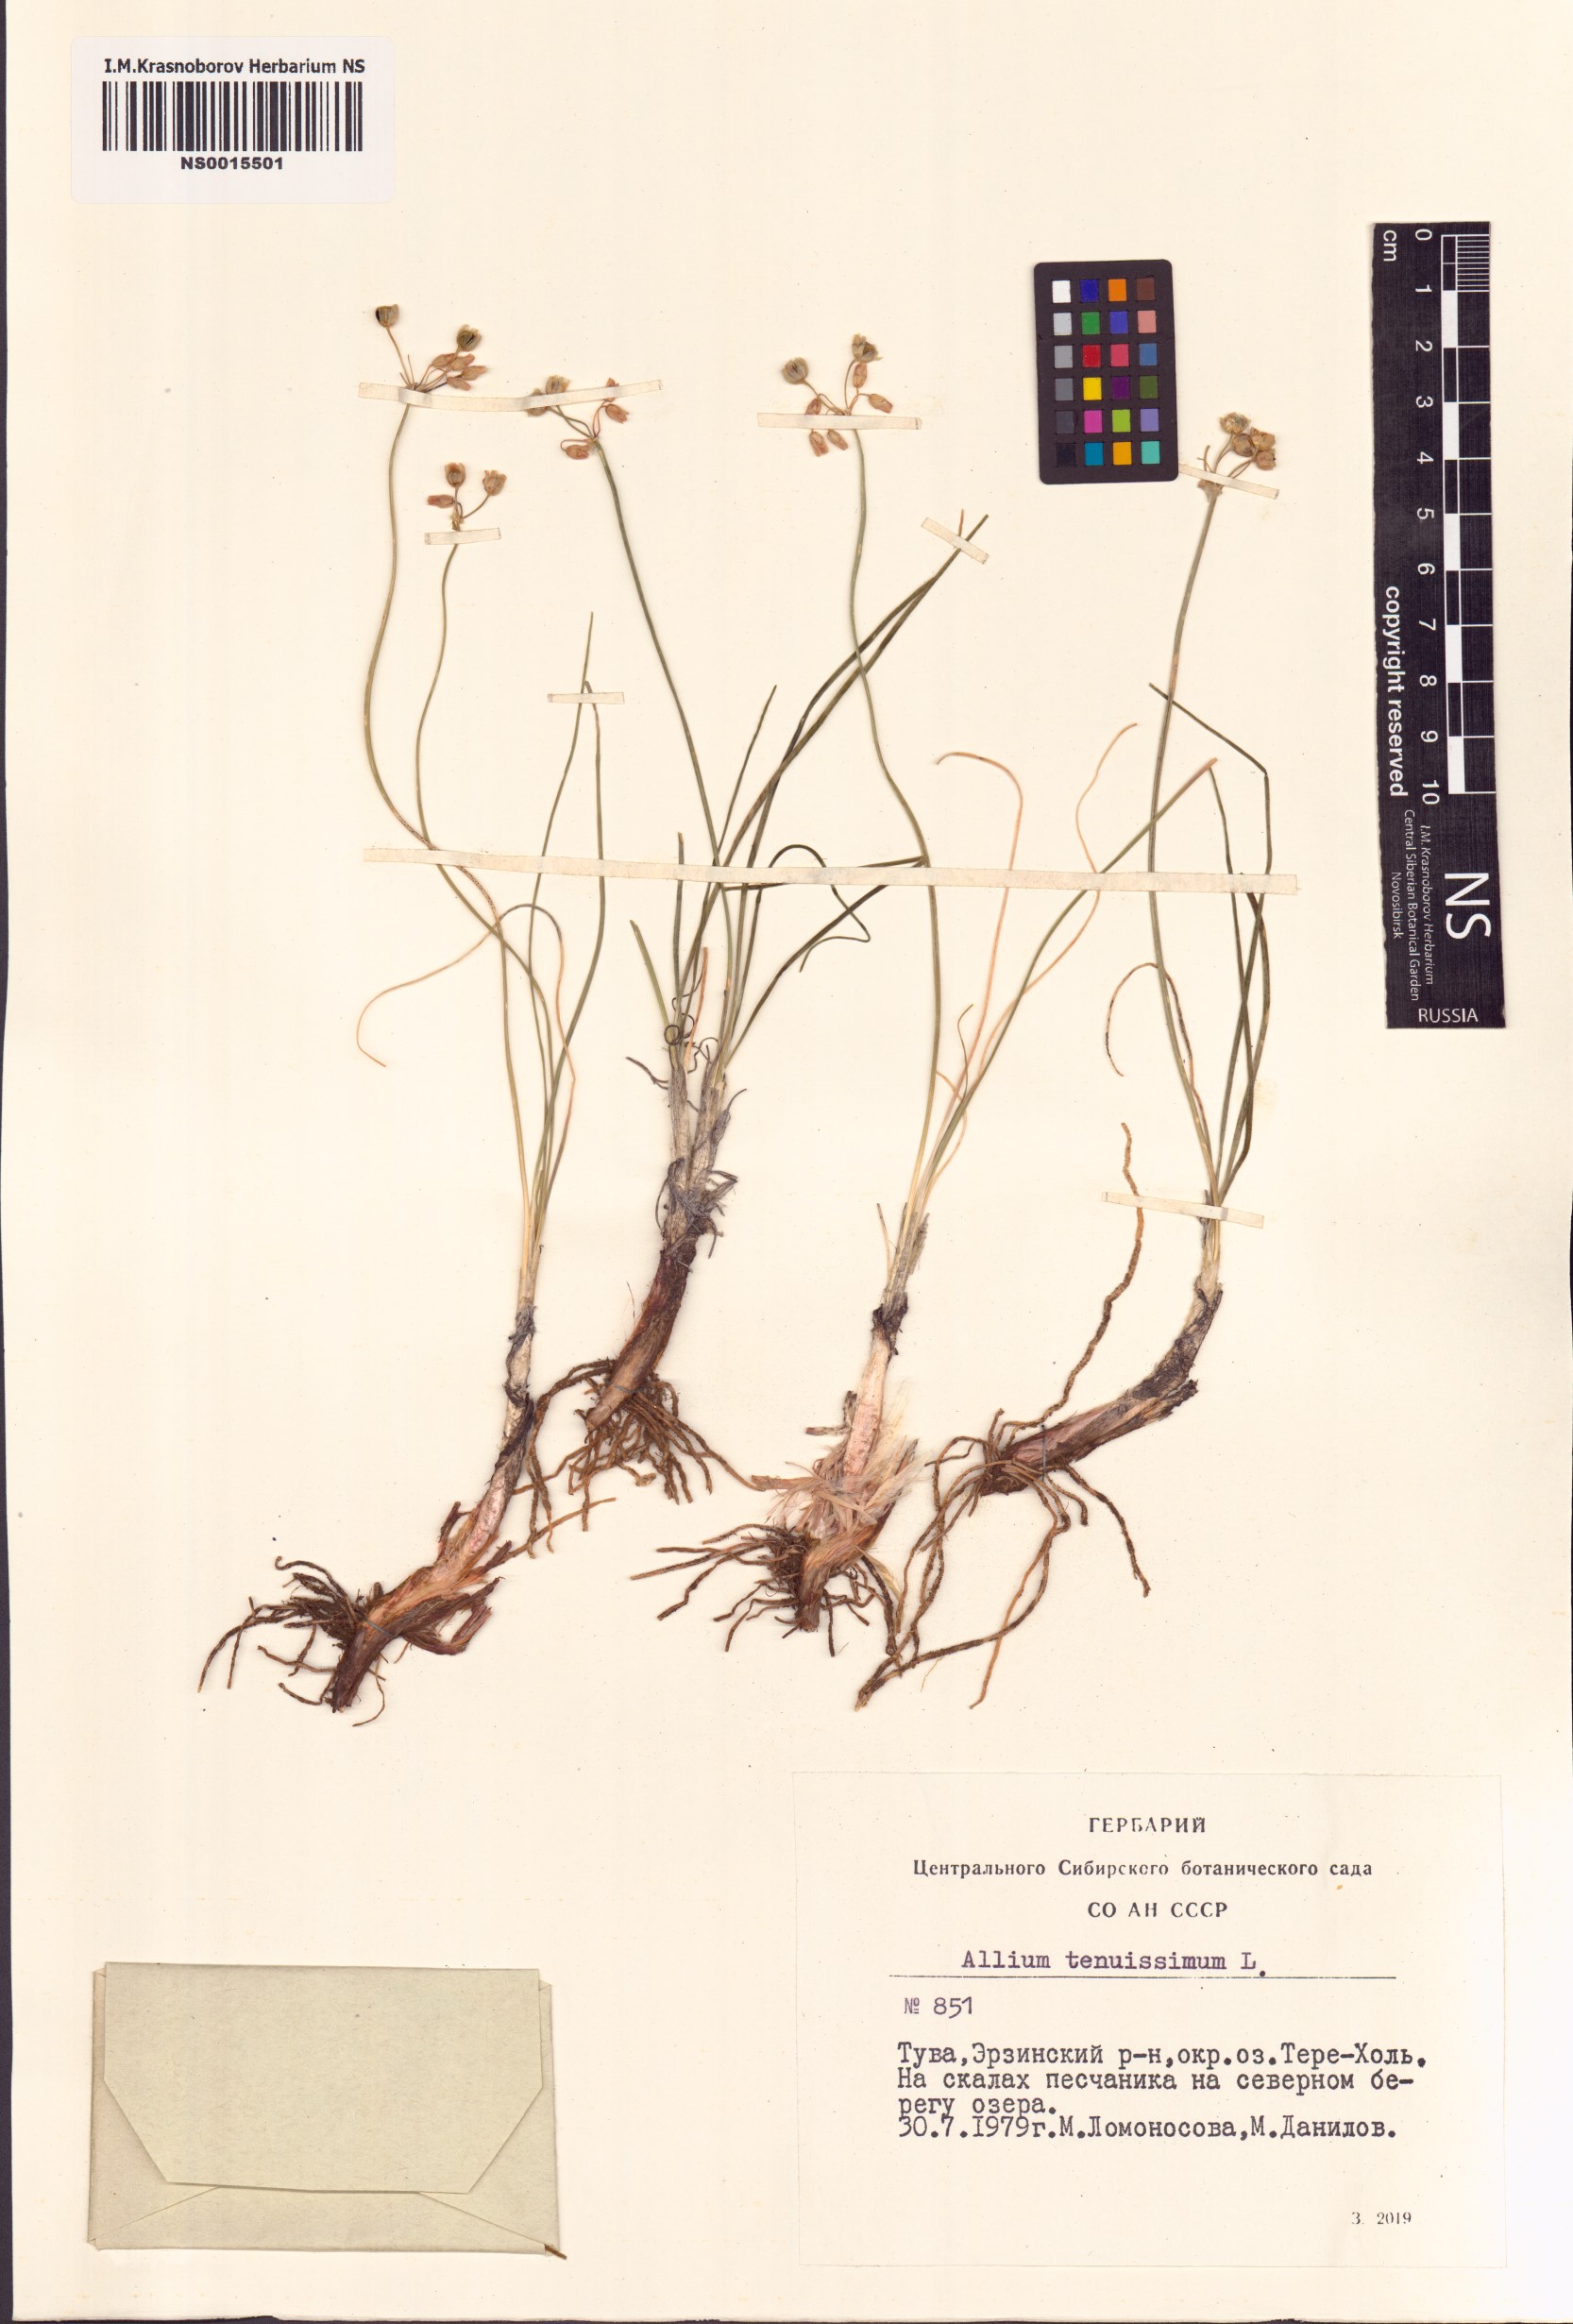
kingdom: Plantae
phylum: Tracheophyta
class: Liliopsida
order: Asparagales
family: Amaryllidaceae
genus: Allium
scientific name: Allium tenuissimum
